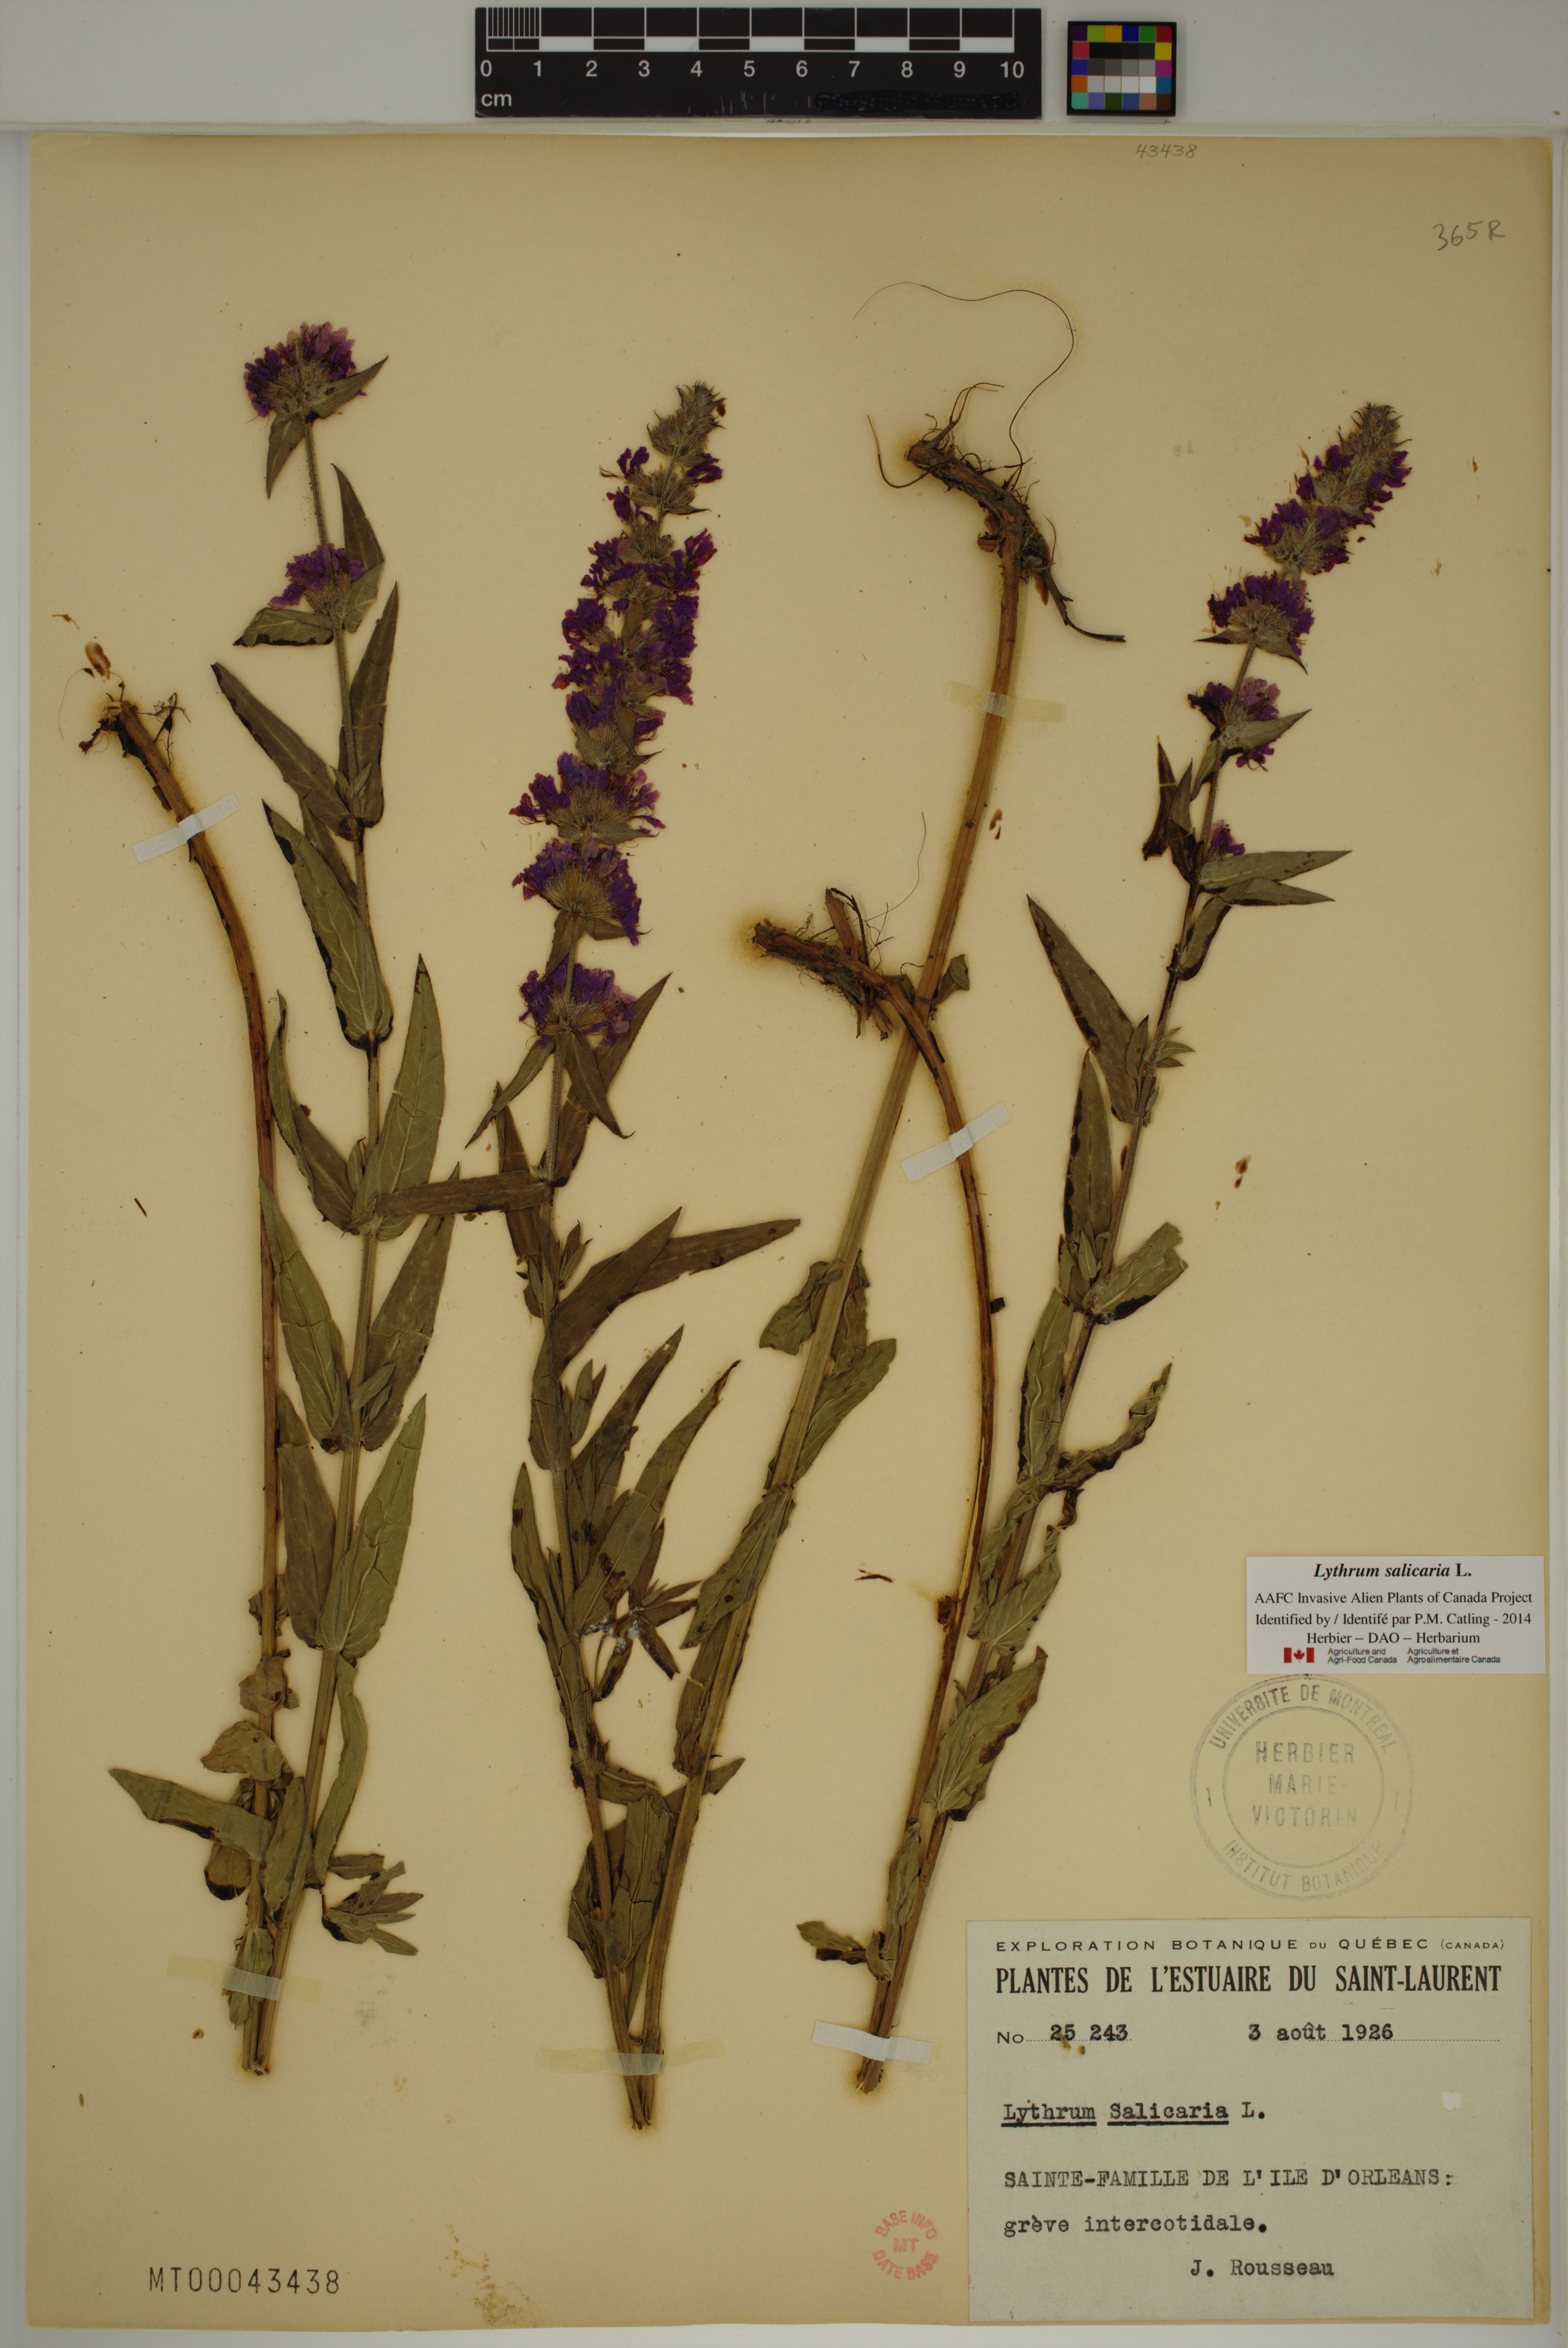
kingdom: Plantae
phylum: Tracheophyta
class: Magnoliopsida
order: Myrtales
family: Lythraceae
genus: Lythrum
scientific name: Lythrum salicaria
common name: Purple loosestrife
